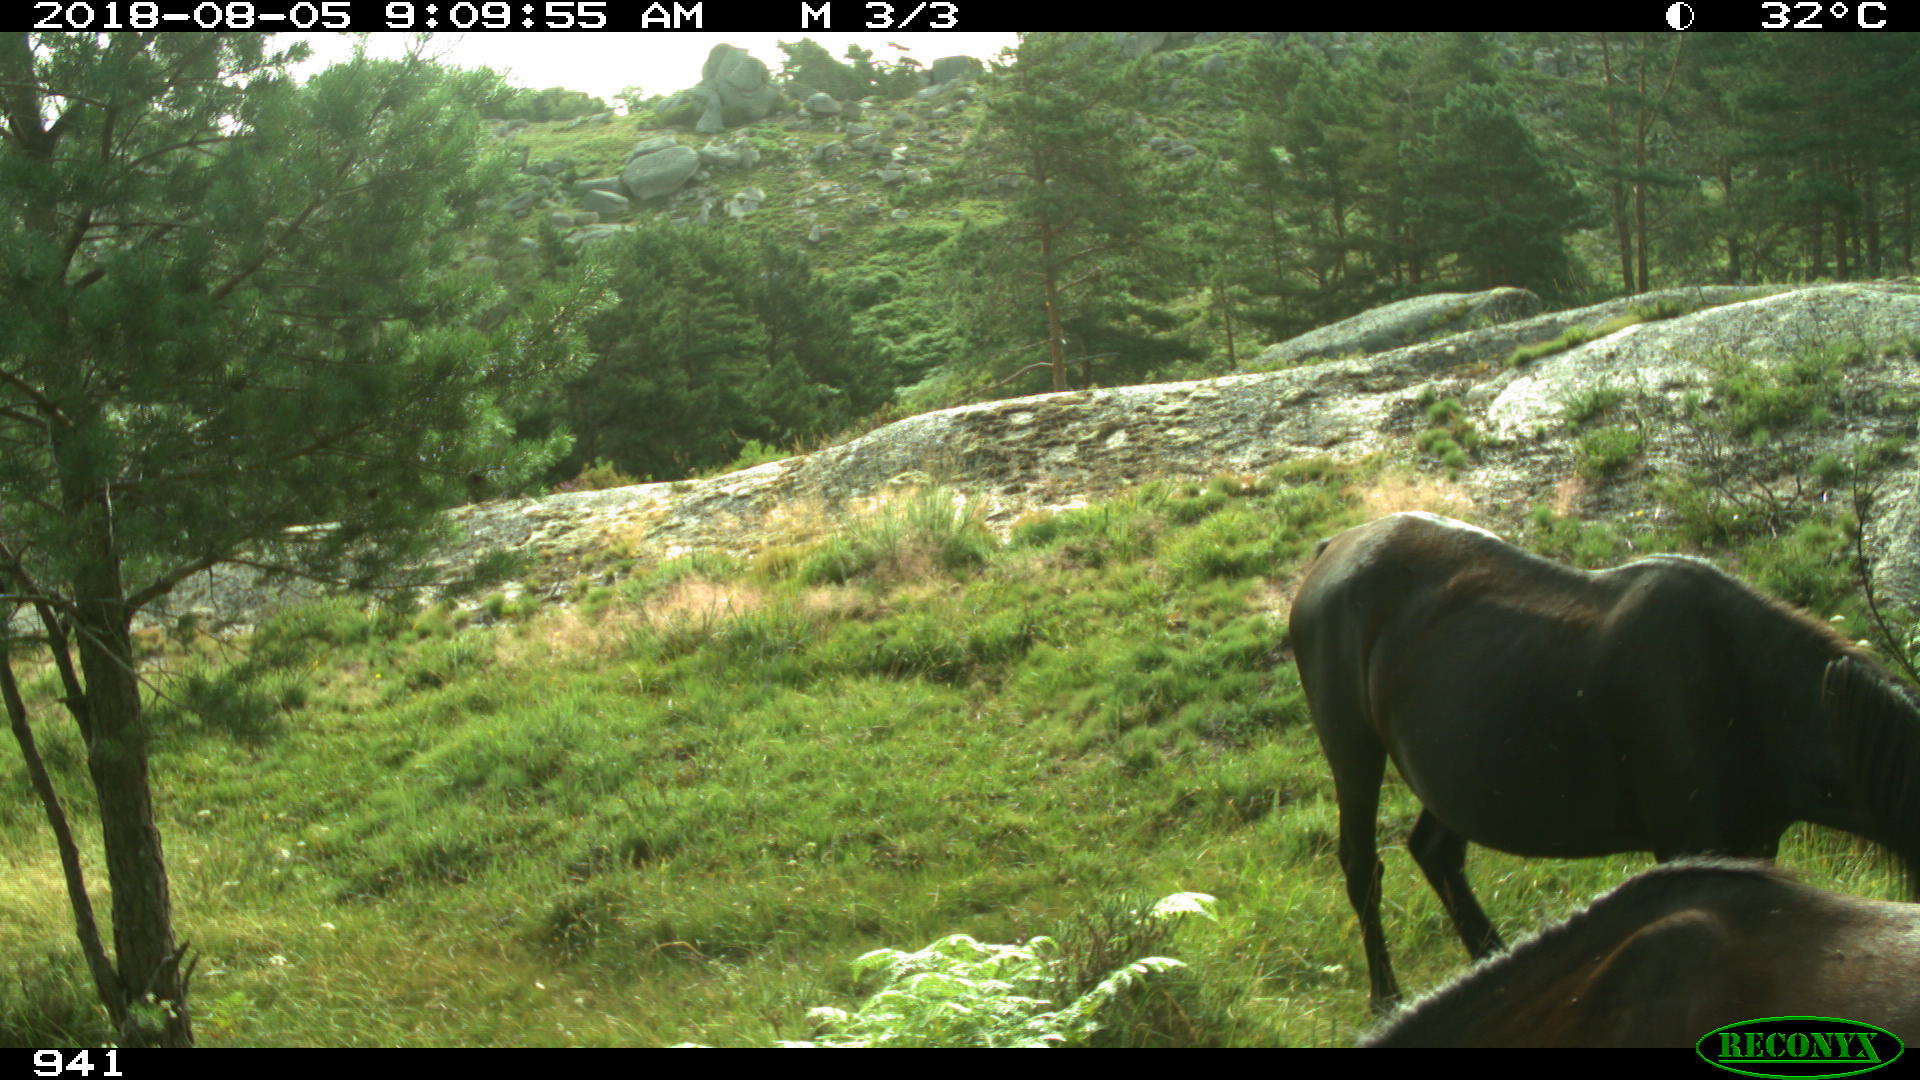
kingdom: Animalia
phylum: Chordata
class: Mammalia
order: Perissodactyla
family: Equidae
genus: Equus
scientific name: Equus caballus
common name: Horse
